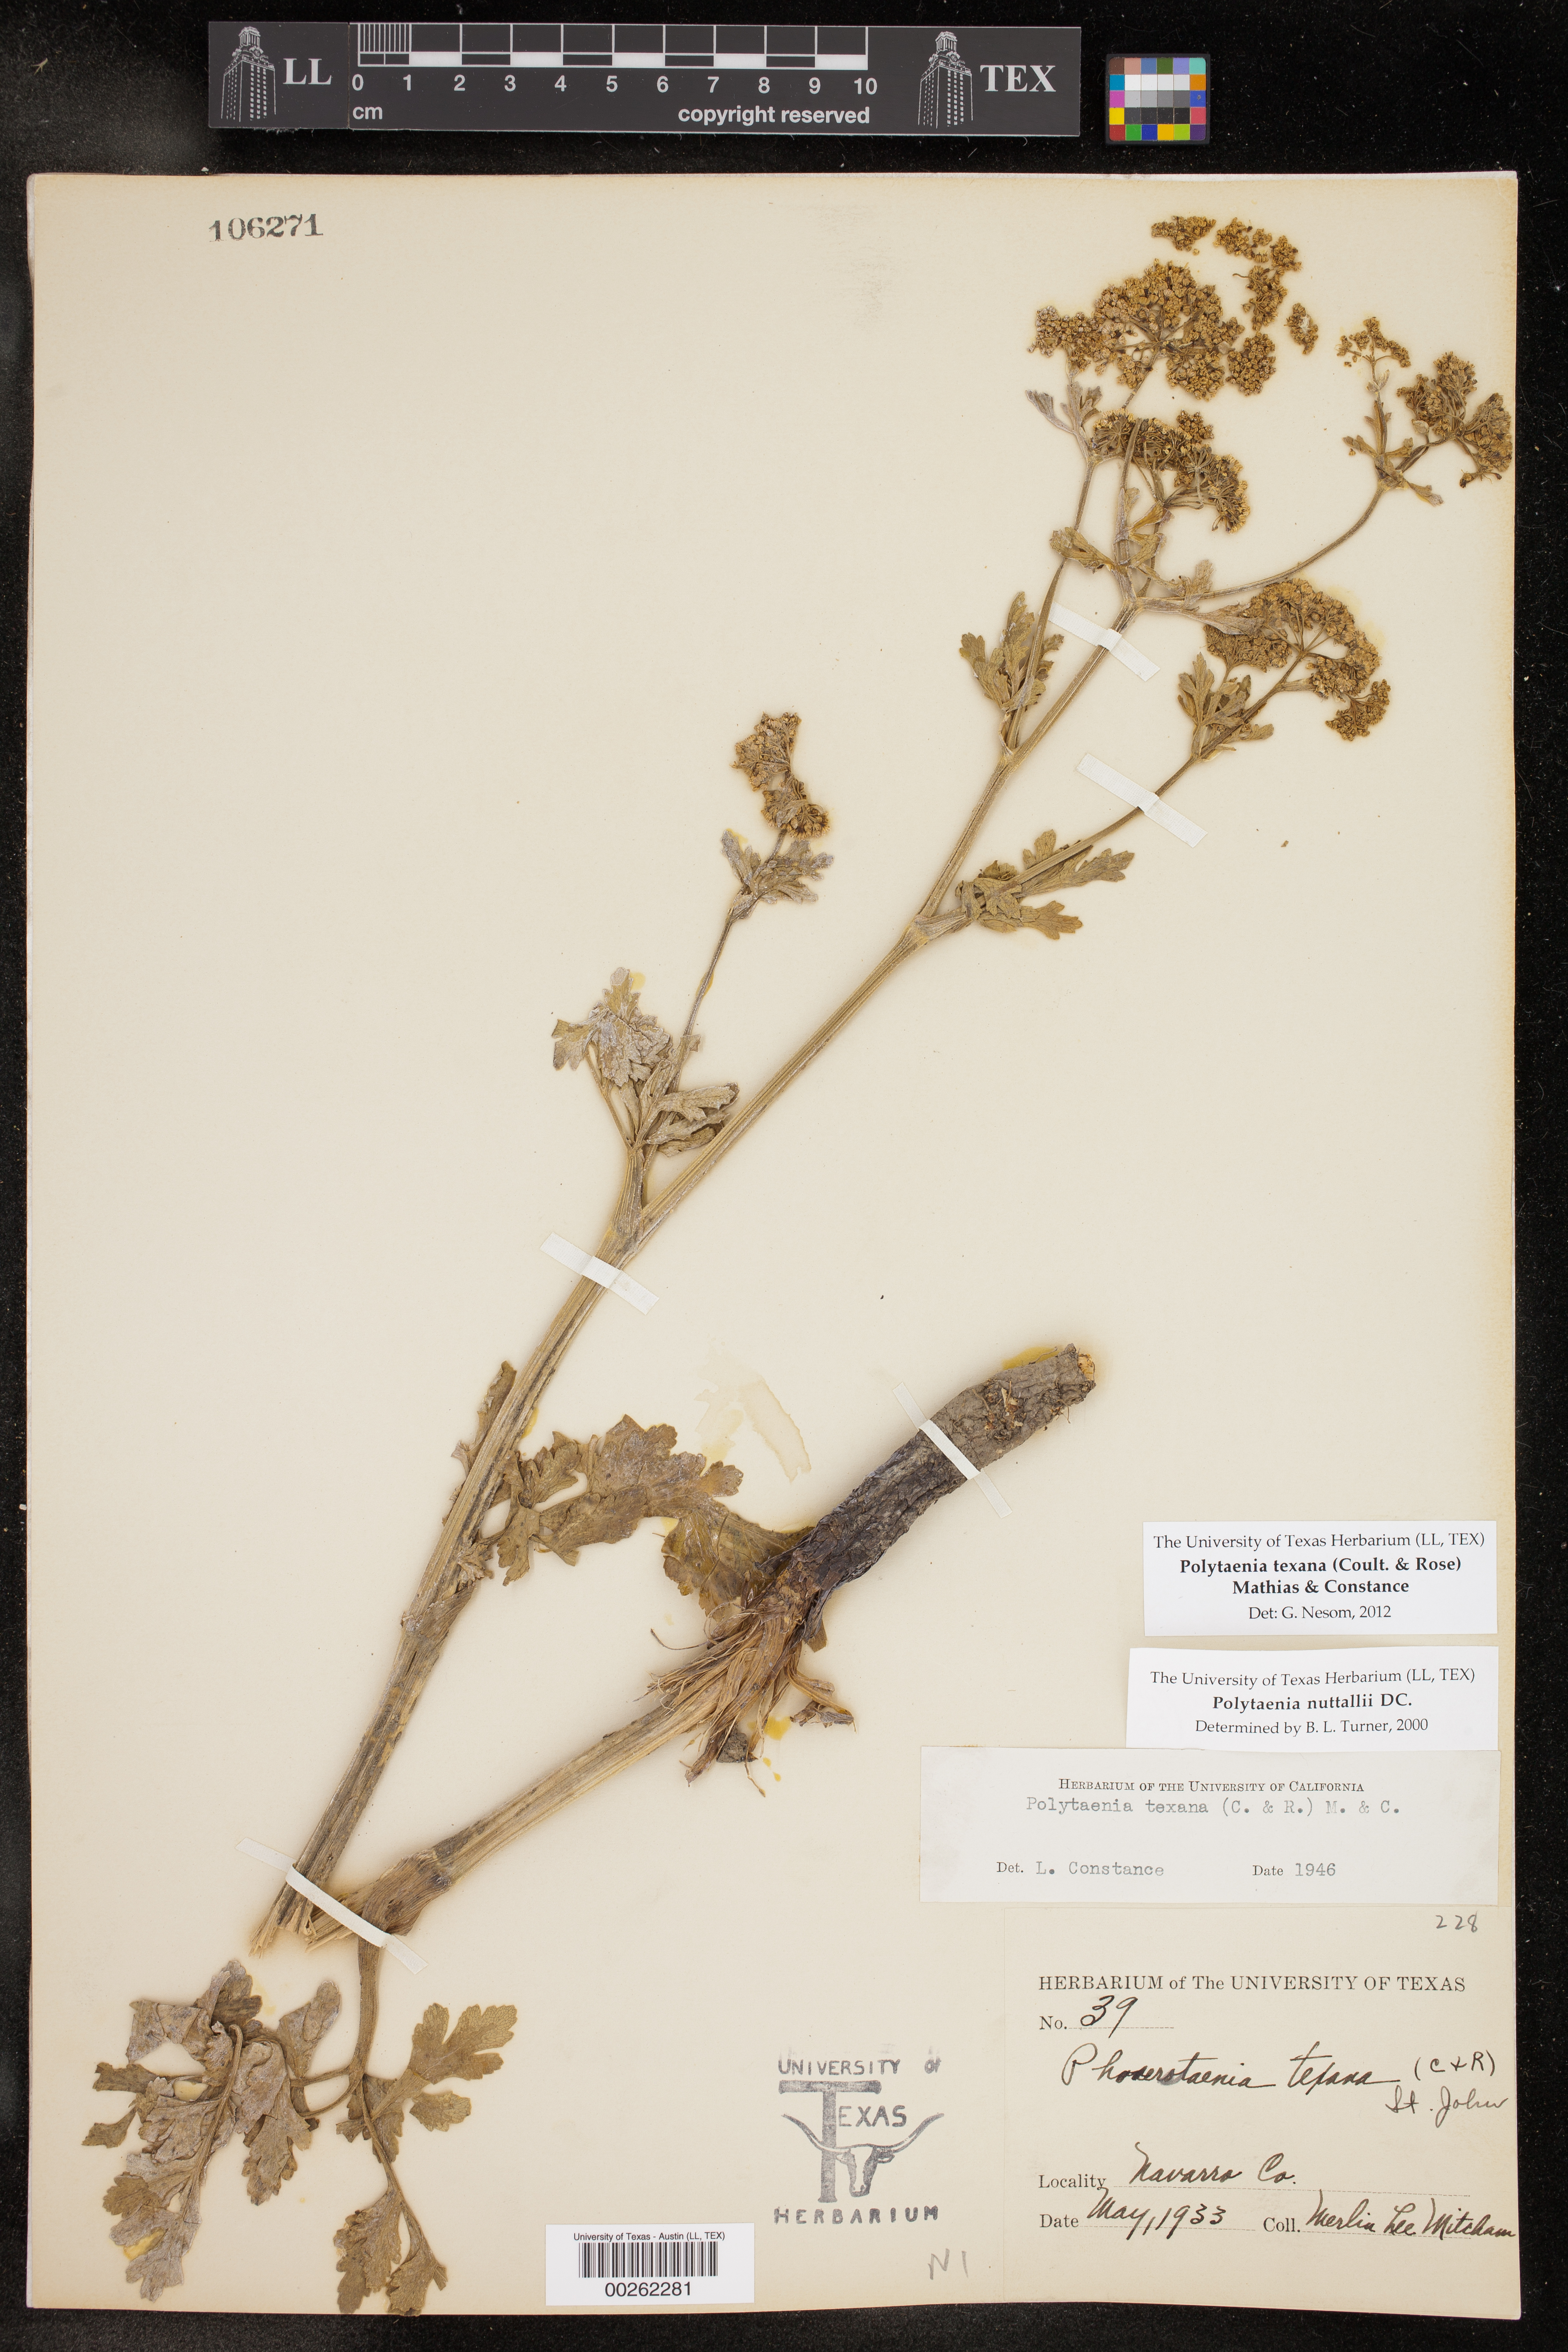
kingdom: Plantae
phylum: Tracheophyta
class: Magnoliopsida
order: Apiales
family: Apiaceae
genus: Polytaenia
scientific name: Polytaenia texana
